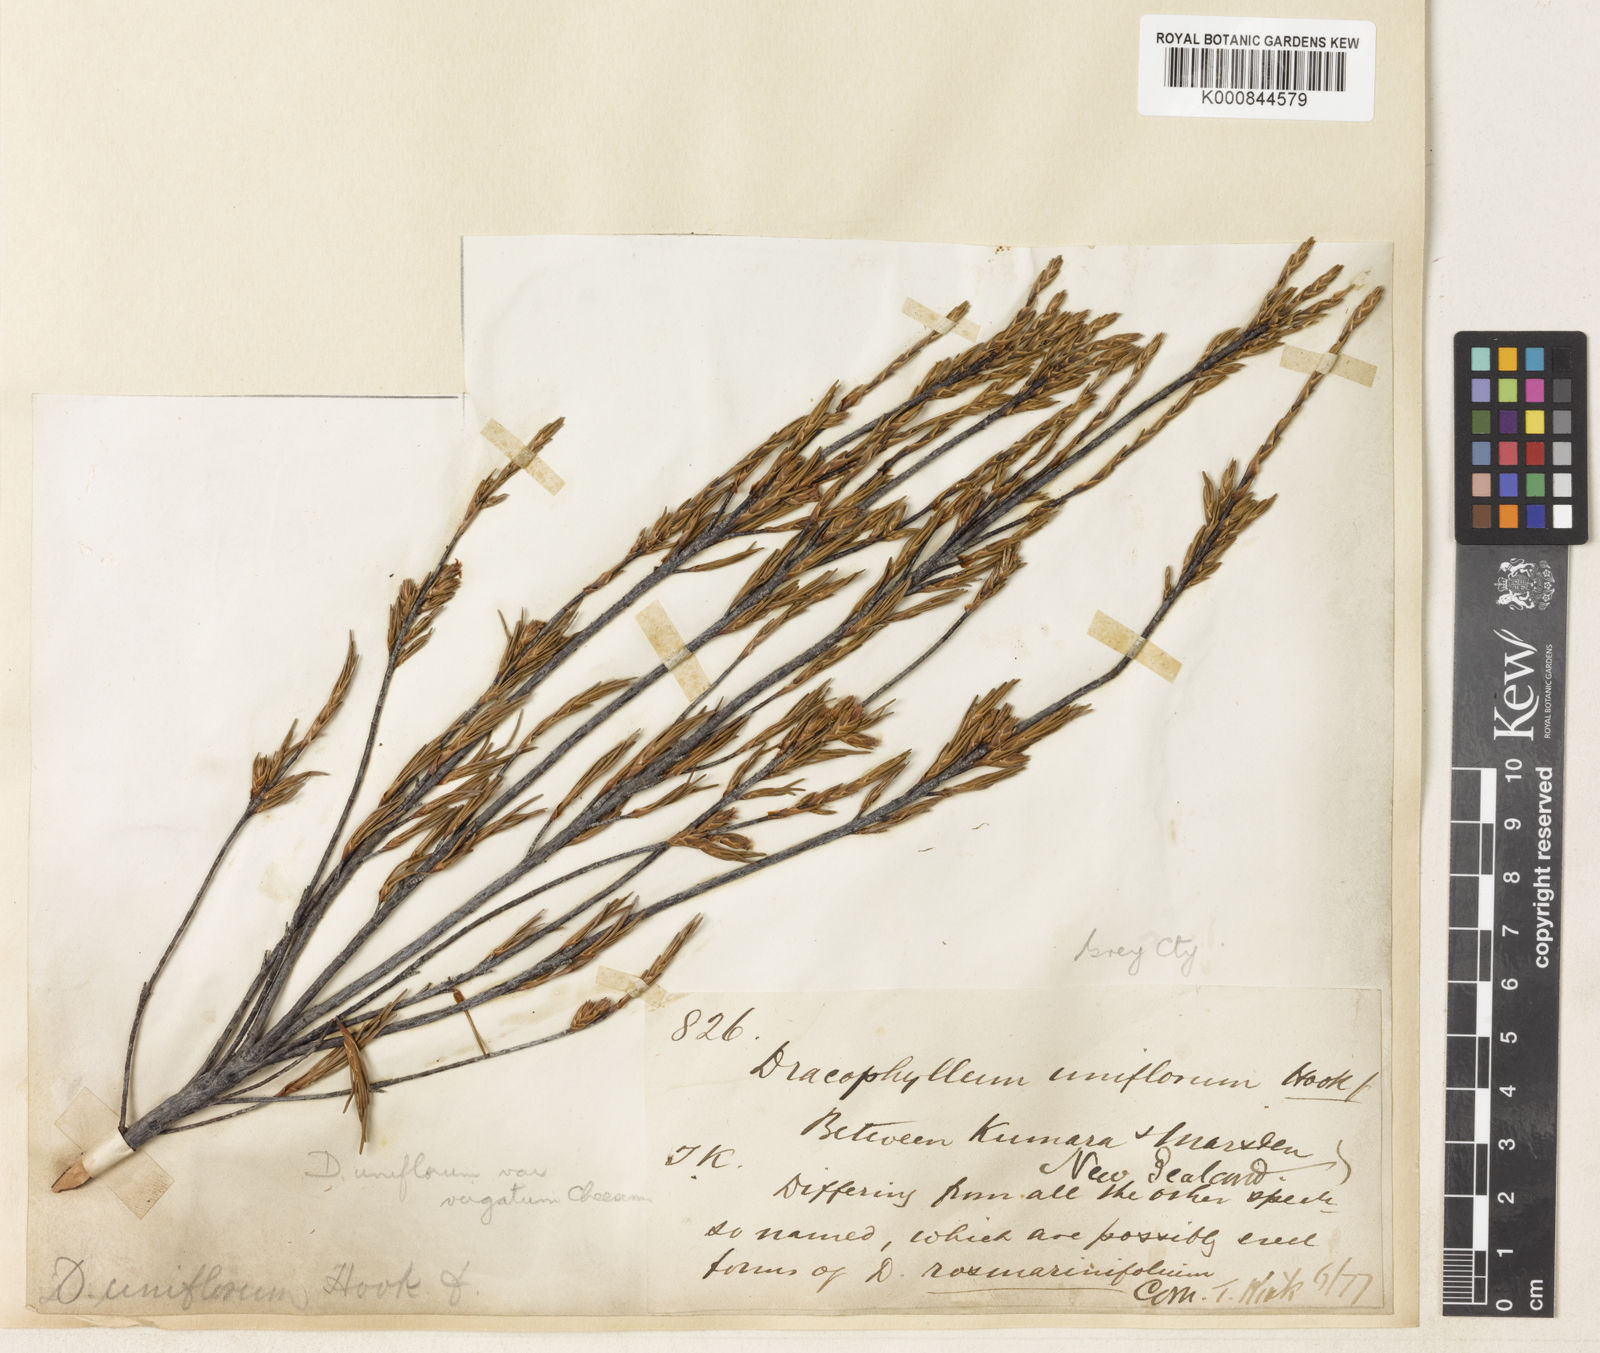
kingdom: Plantae
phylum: Tracheophyta
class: Magnoliopsida
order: Ericales
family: Ericaceae
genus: Dracophyllum
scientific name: Dracophyllum uniflorum
